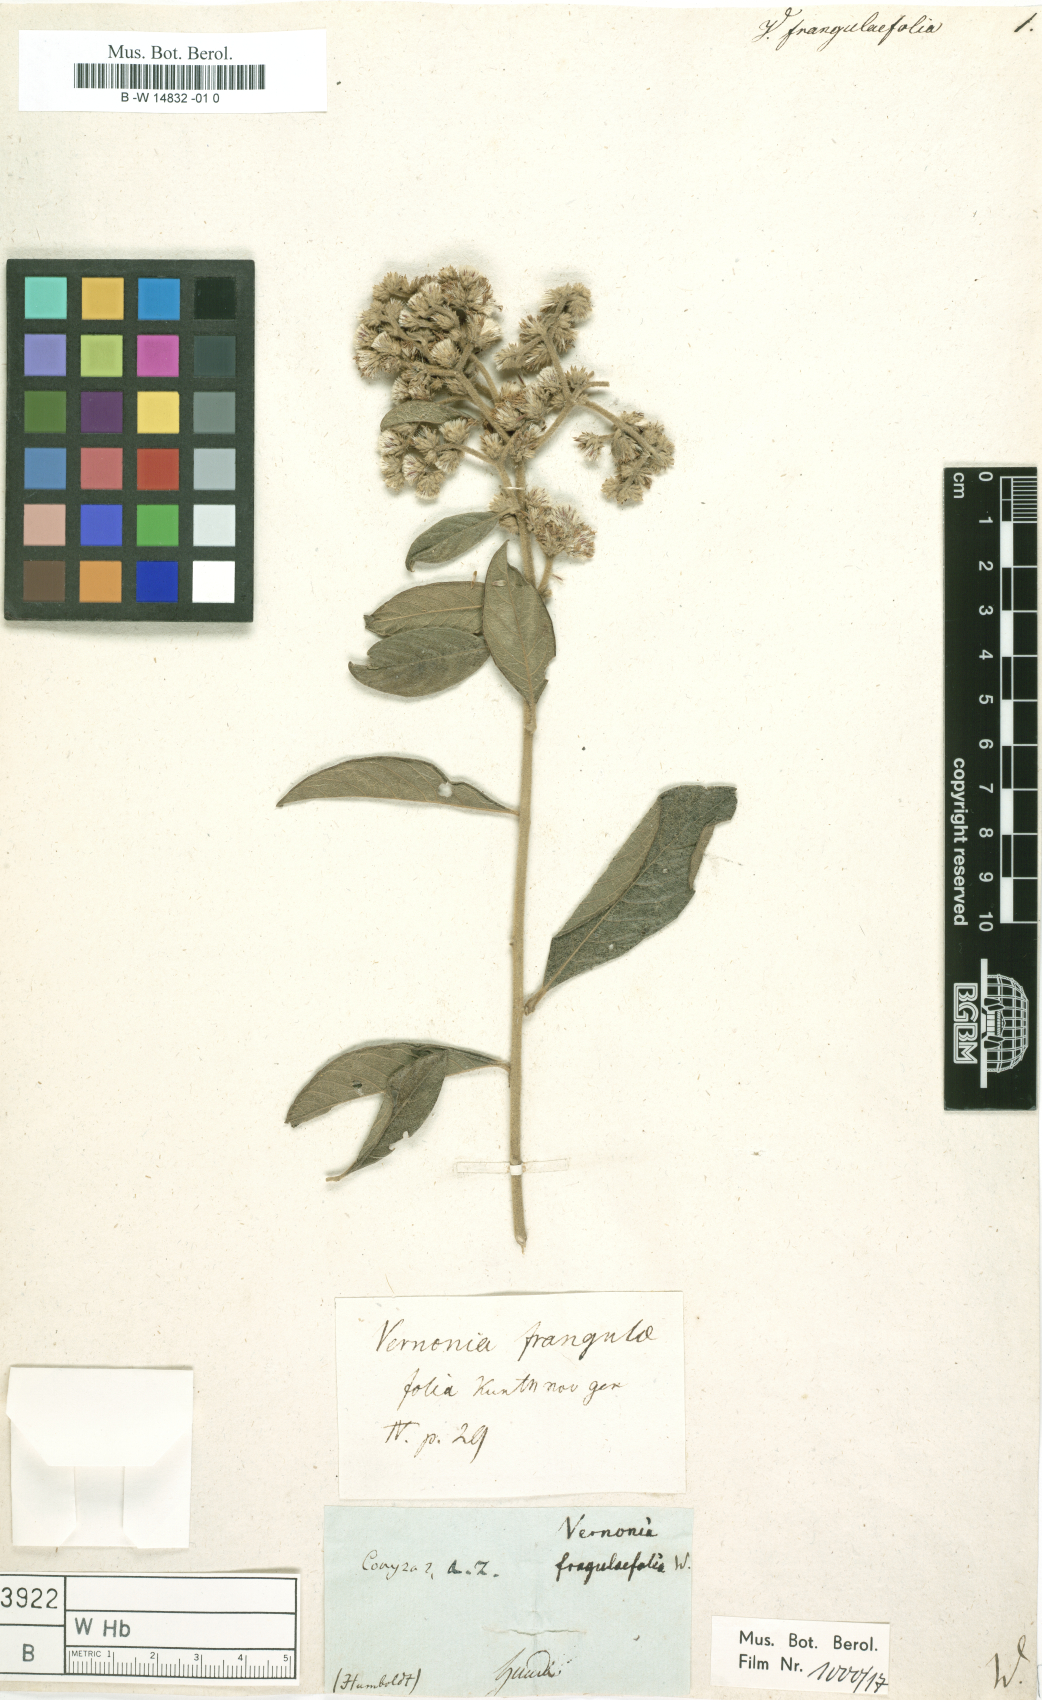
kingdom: Plantae
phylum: Tracheophyta
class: Magnoliopsida
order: Asterales
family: Asteraceae
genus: Lepidaploa
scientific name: Lepidaploa frangulifolia
